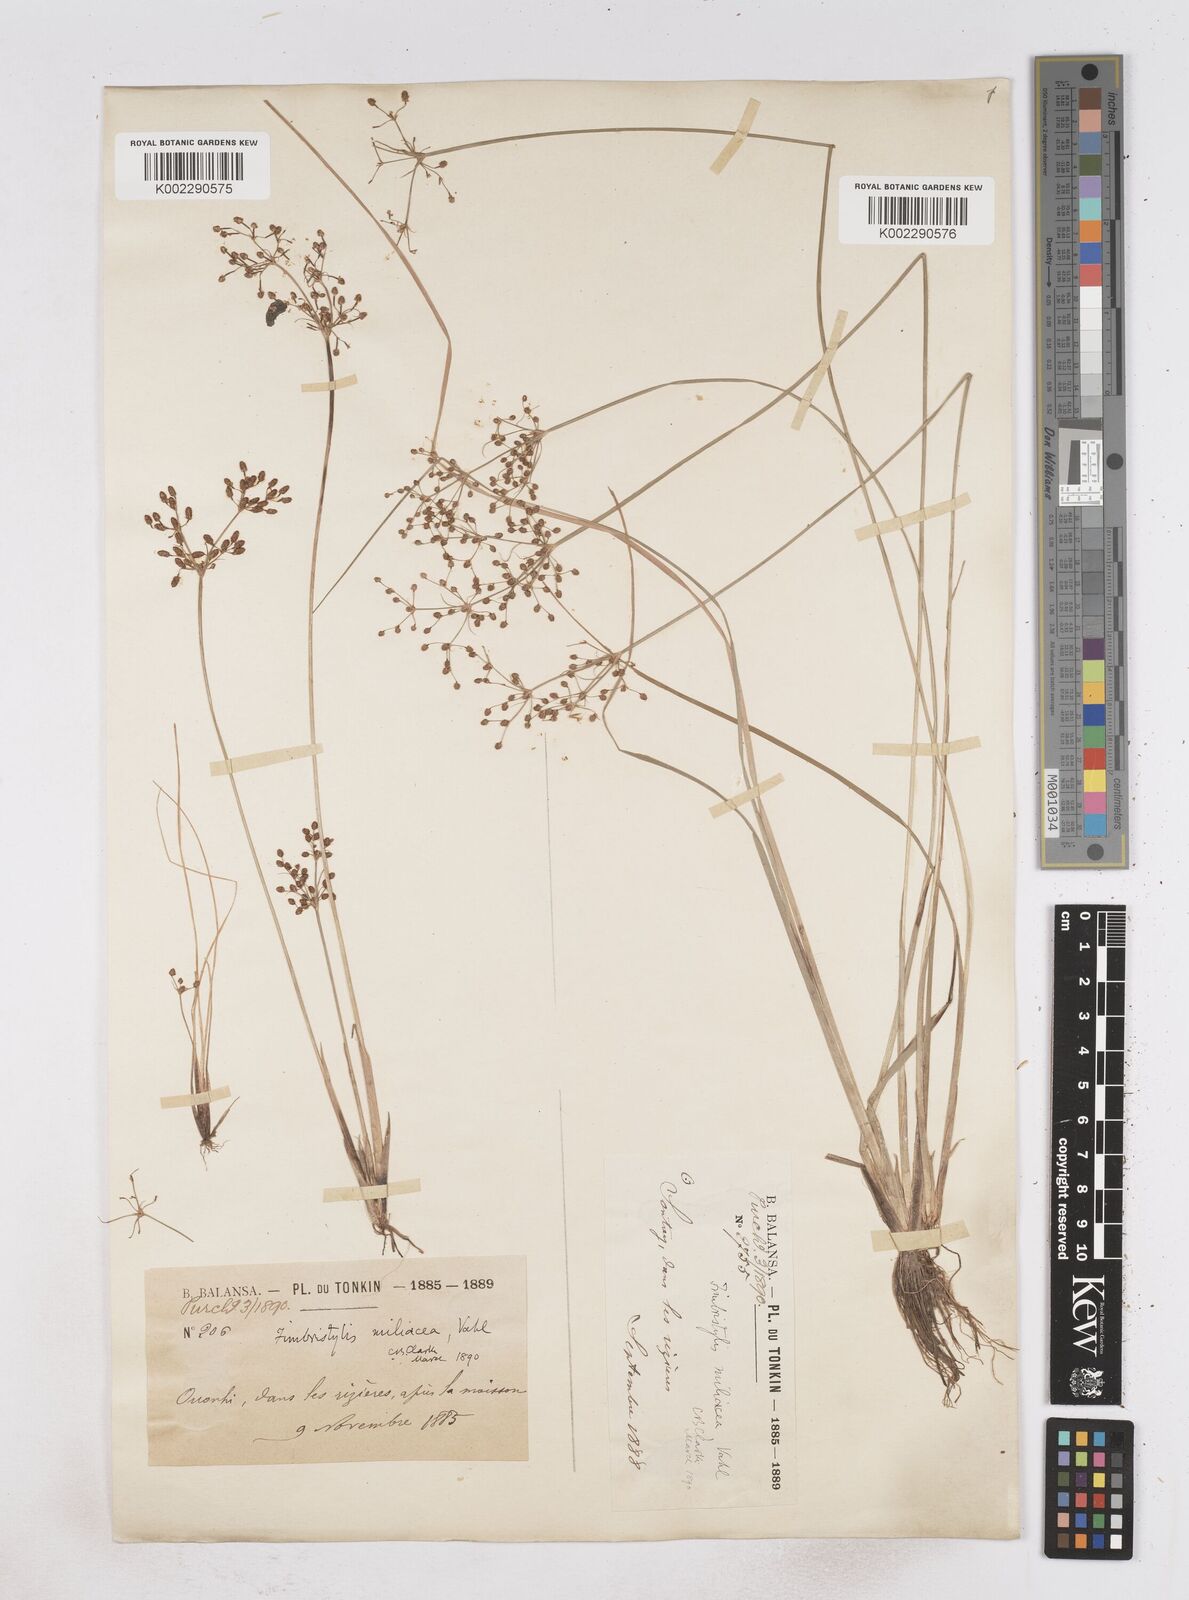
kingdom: Plantae
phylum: Tracheophyta
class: Liliopsida
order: Poales
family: Cyperaceae
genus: Fimbristylis
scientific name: Fimbristylis littoralis
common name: Fimbry
